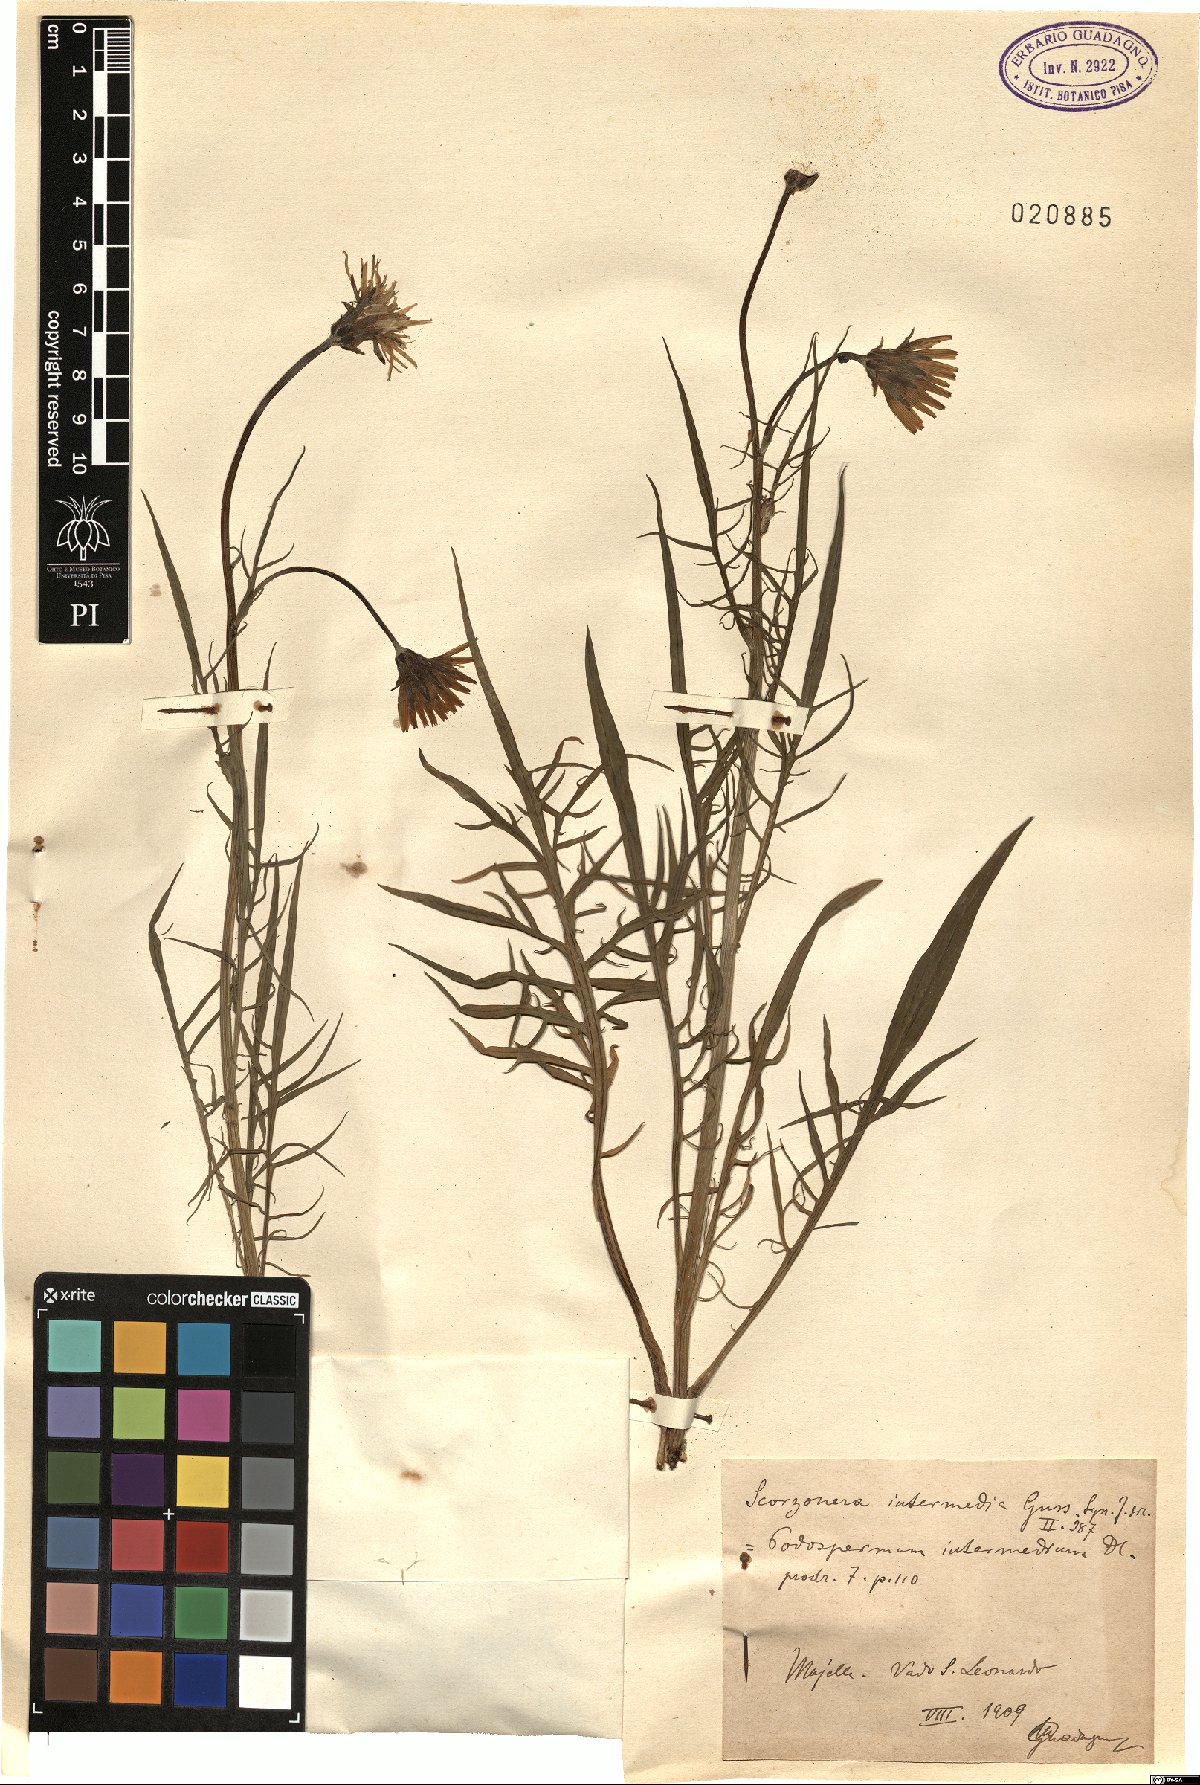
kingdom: Plantae
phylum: Tracheophyta
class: Magnoliopsida
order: Asterales
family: Asteraceae
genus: Epilasia
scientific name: Epilasia hemilasia
